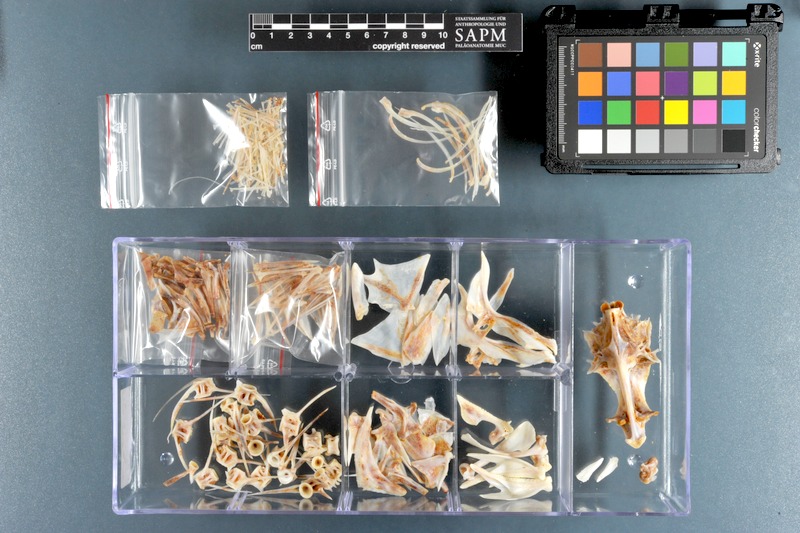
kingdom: Animalia
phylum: Chordata
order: Perciformes
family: Serranidae
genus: Epinephelus
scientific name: Epinephelus areolatus
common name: Areolate grouper
